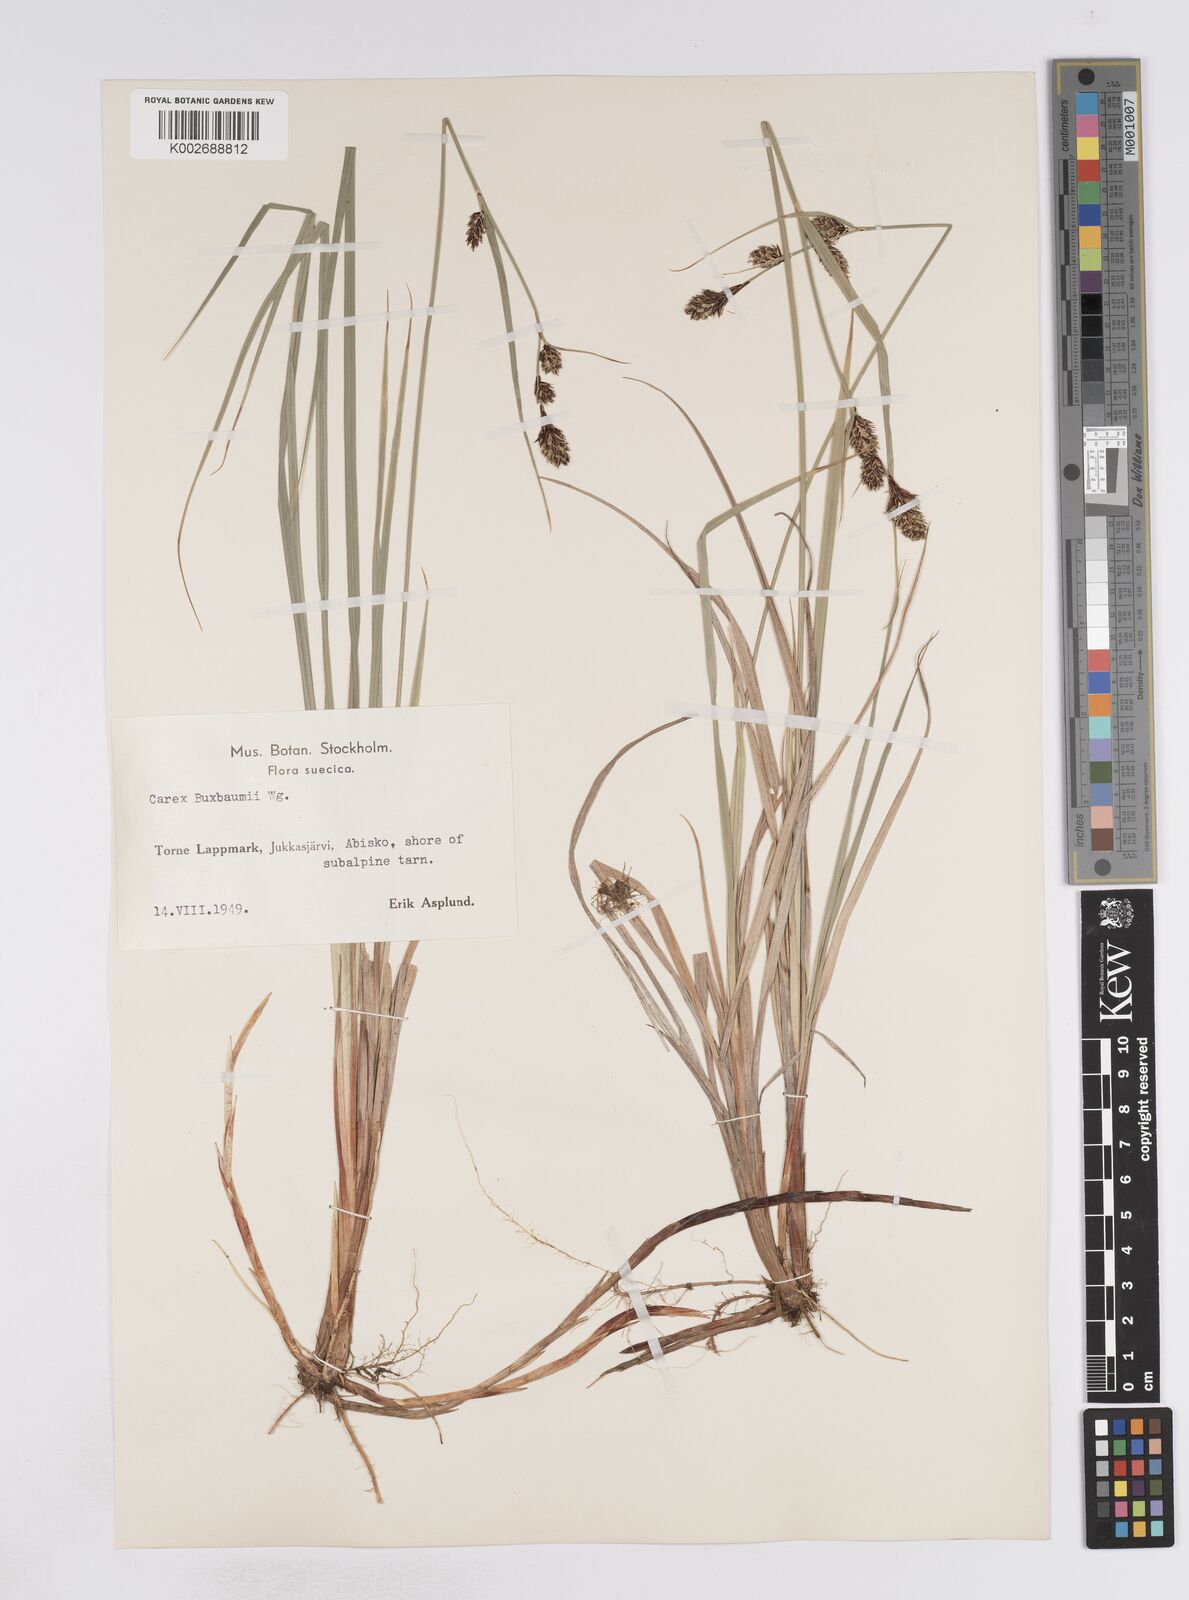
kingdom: Plantae
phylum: Tracheophyta
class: Liliopsida
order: Poales
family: Cyperaceae
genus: Carex
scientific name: Carex buxbaumii
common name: Club sedge
